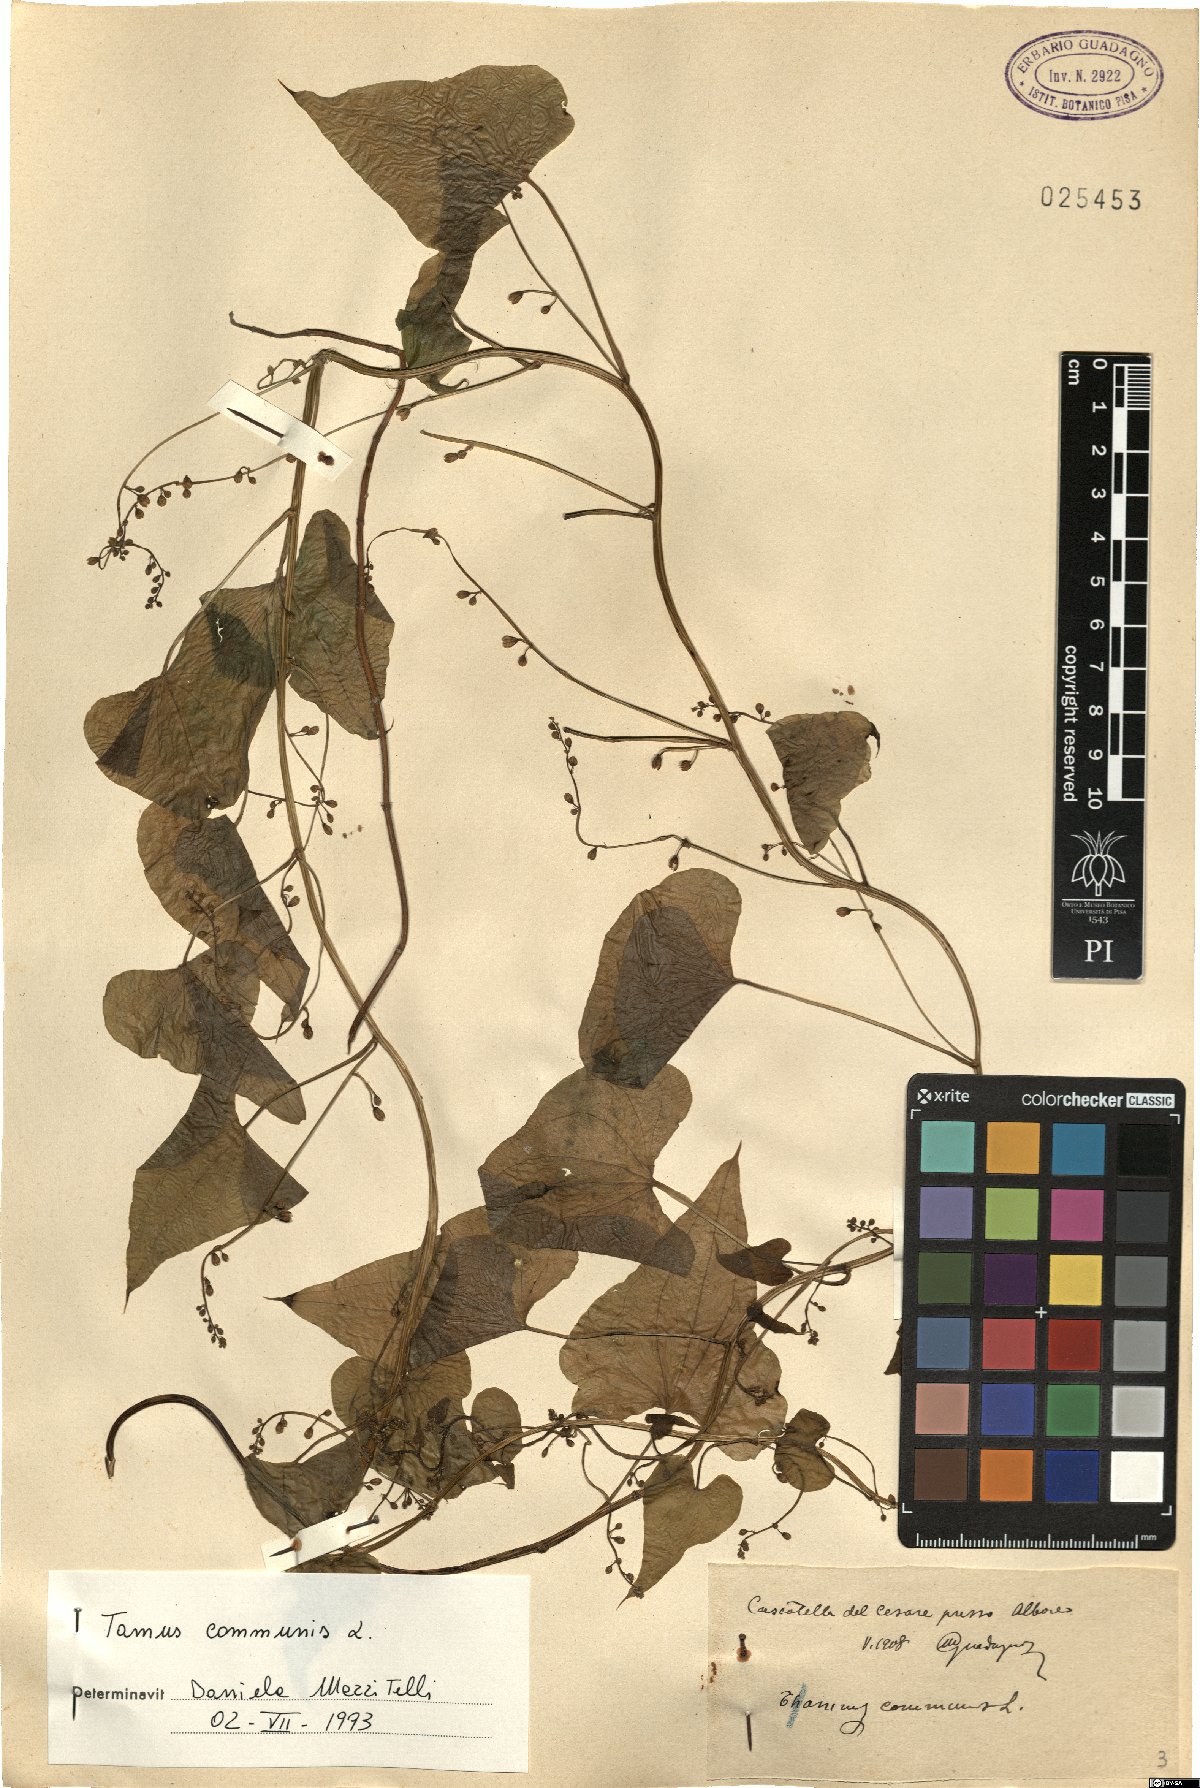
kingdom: Plantae
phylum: Tracheophyta
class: Liliopsida
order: Dioscoreales
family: Dioscoreaceae
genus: Dioscorea
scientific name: Dioscorea communis
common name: Black-bindweed
